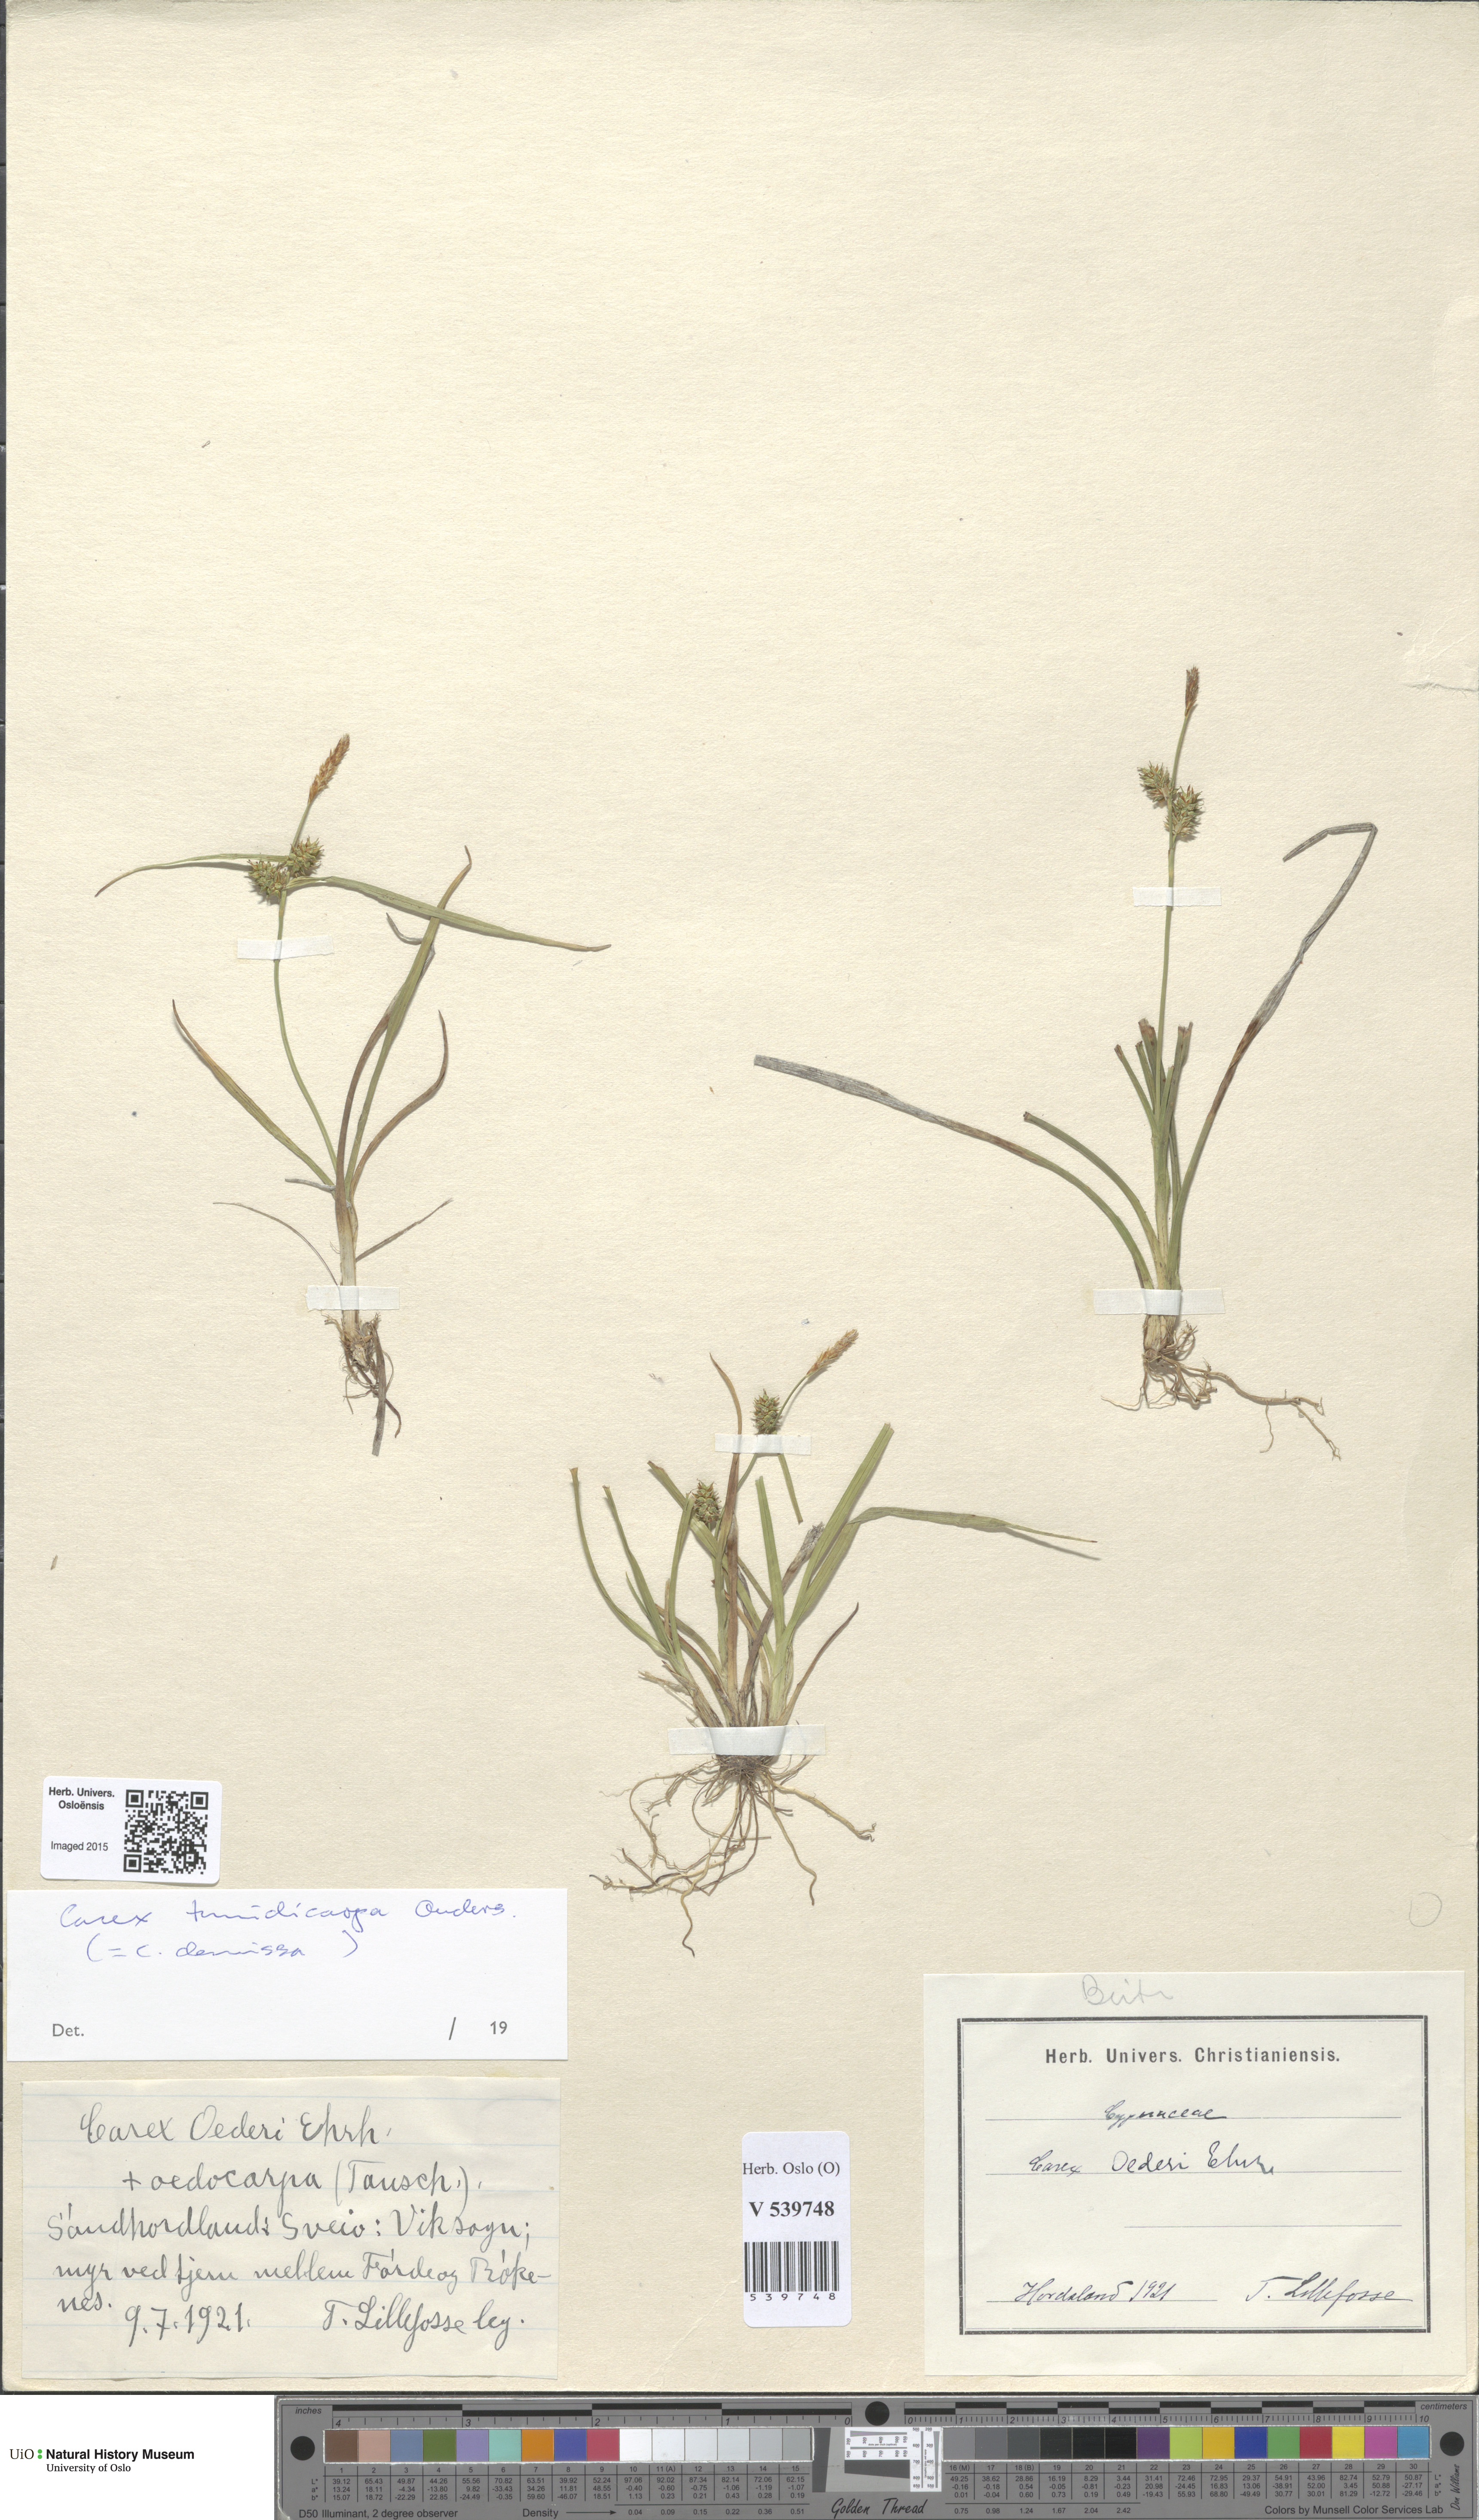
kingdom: Plantae
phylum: Tracheophyta
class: Liliopsida
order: Poales
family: Cyperaceae
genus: Carex
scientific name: Carex demissa
